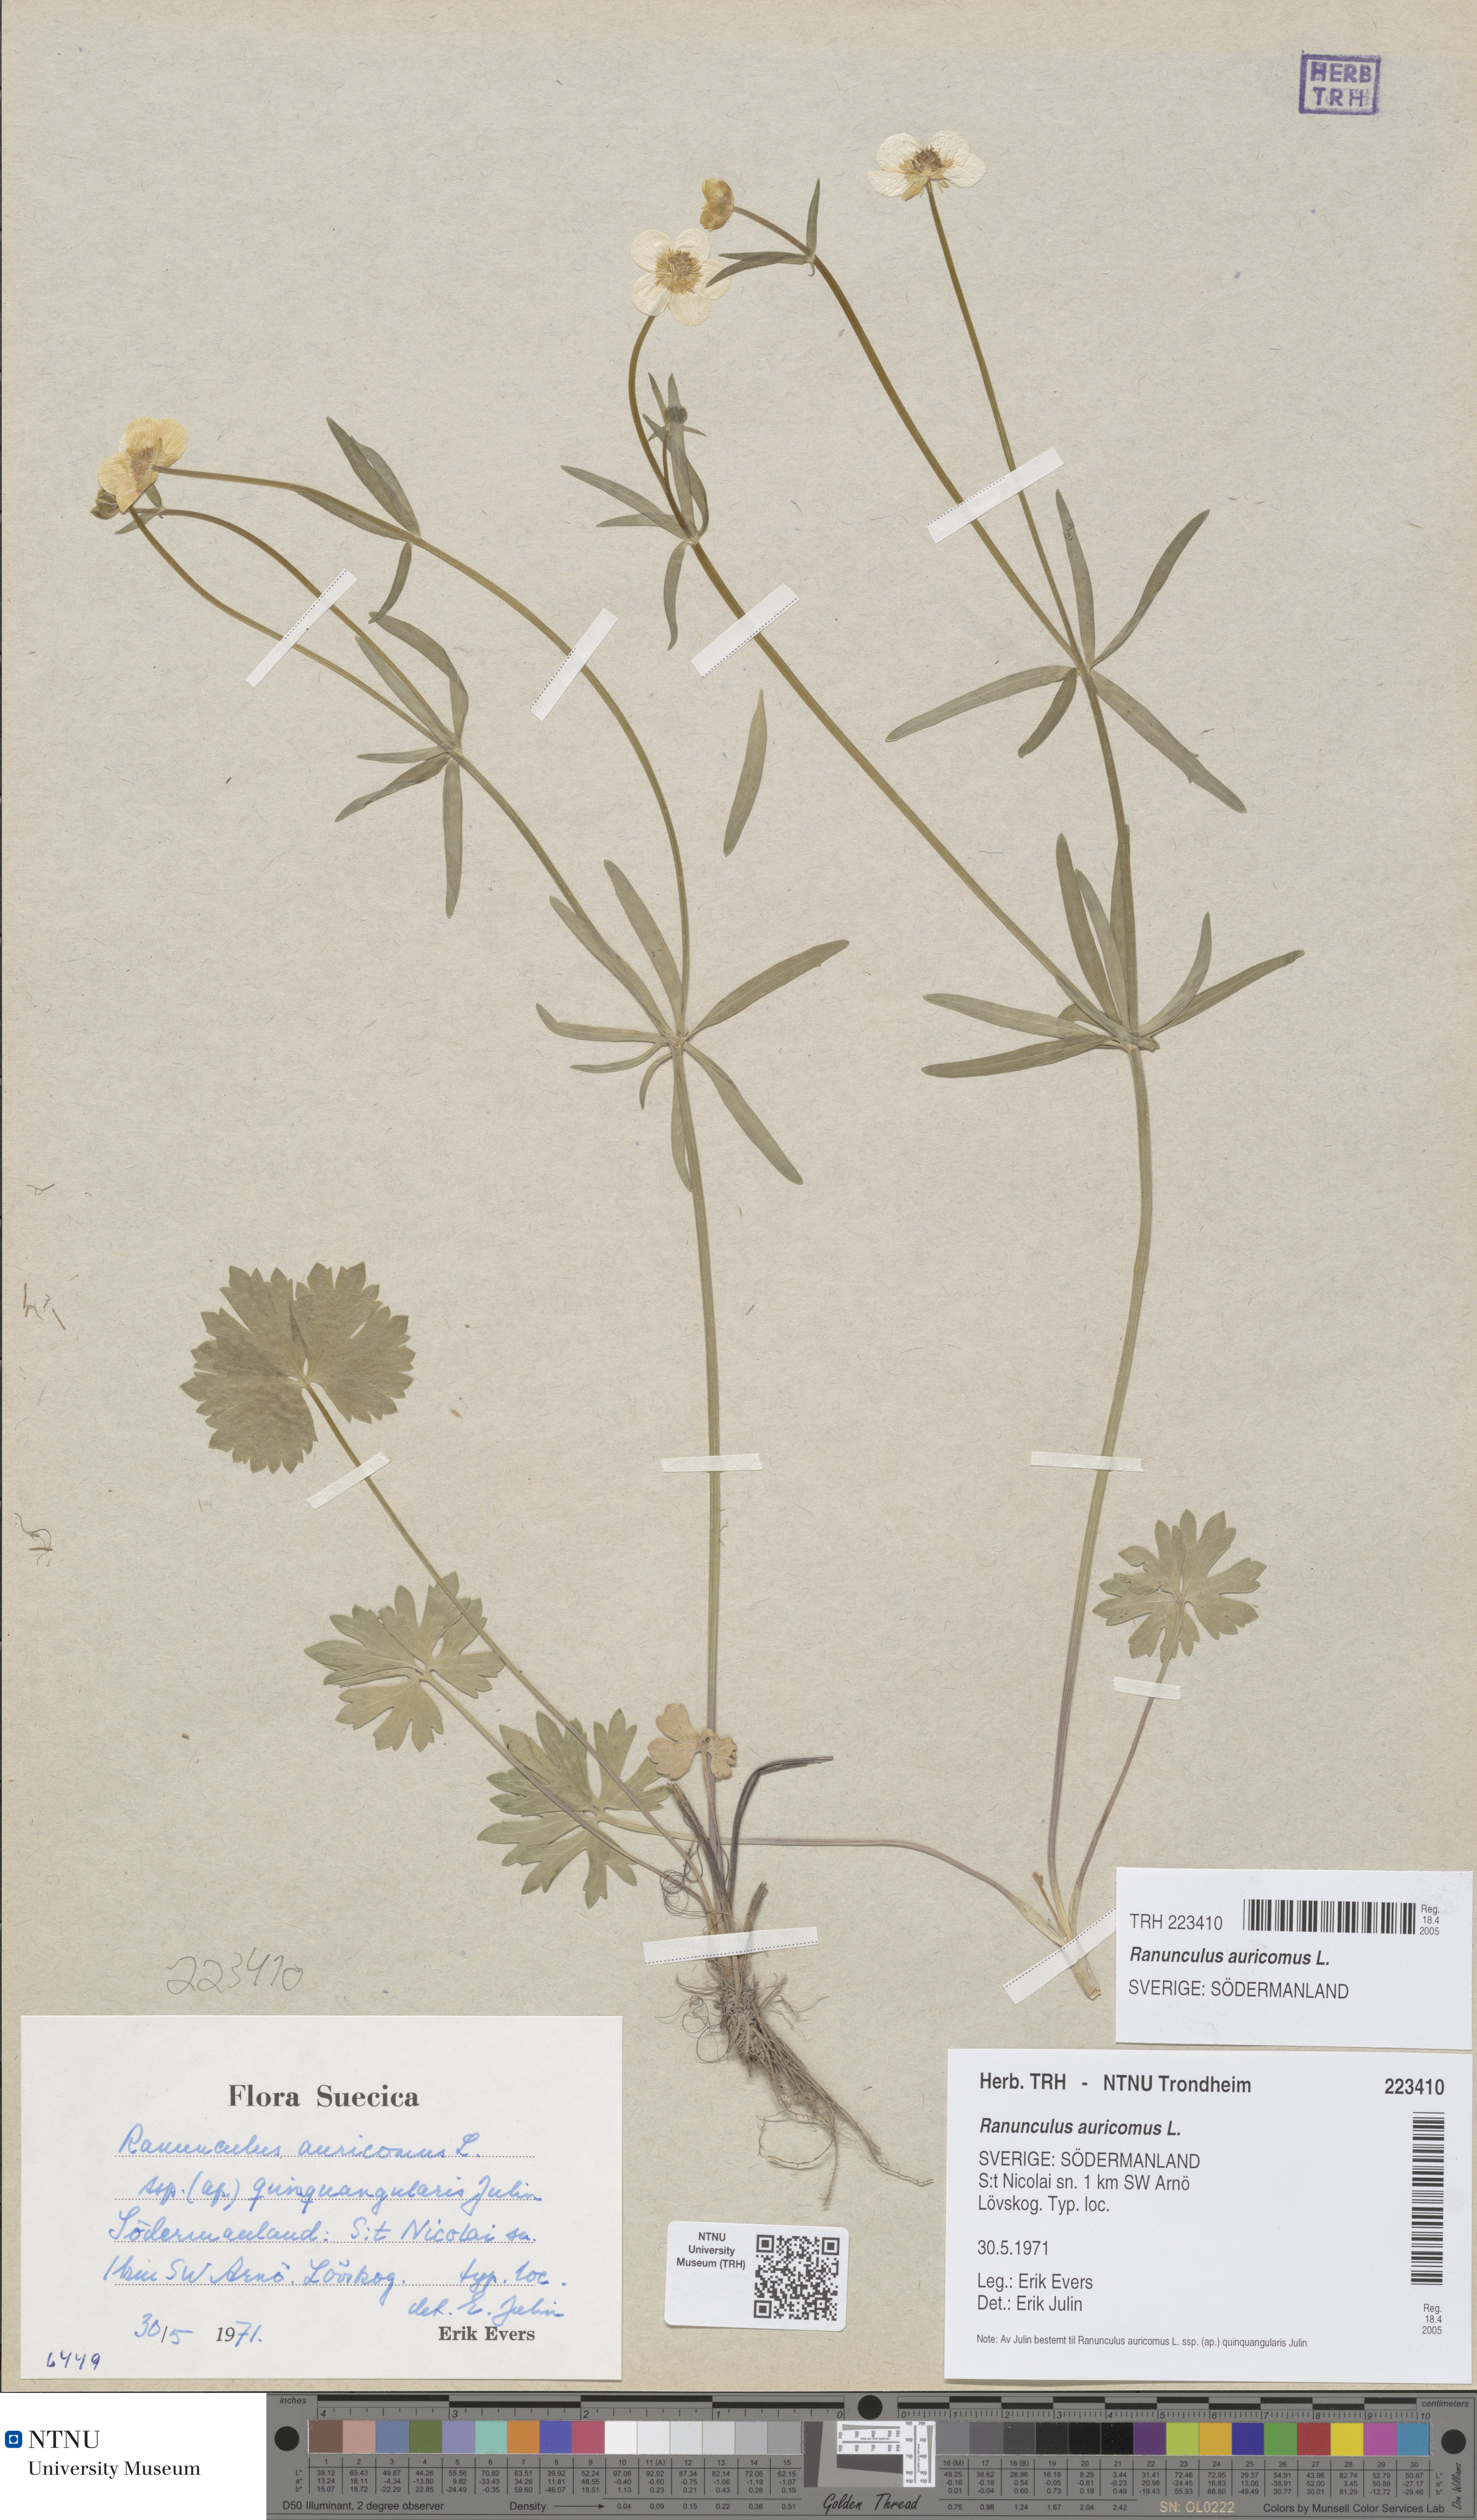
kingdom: Plantae
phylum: Tracheophyta
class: Magnoliopsida
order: Ranunculales
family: Ranunculaceae
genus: Ranunculus
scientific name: Ranunculus auricomus
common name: Goldilocks buttercup
